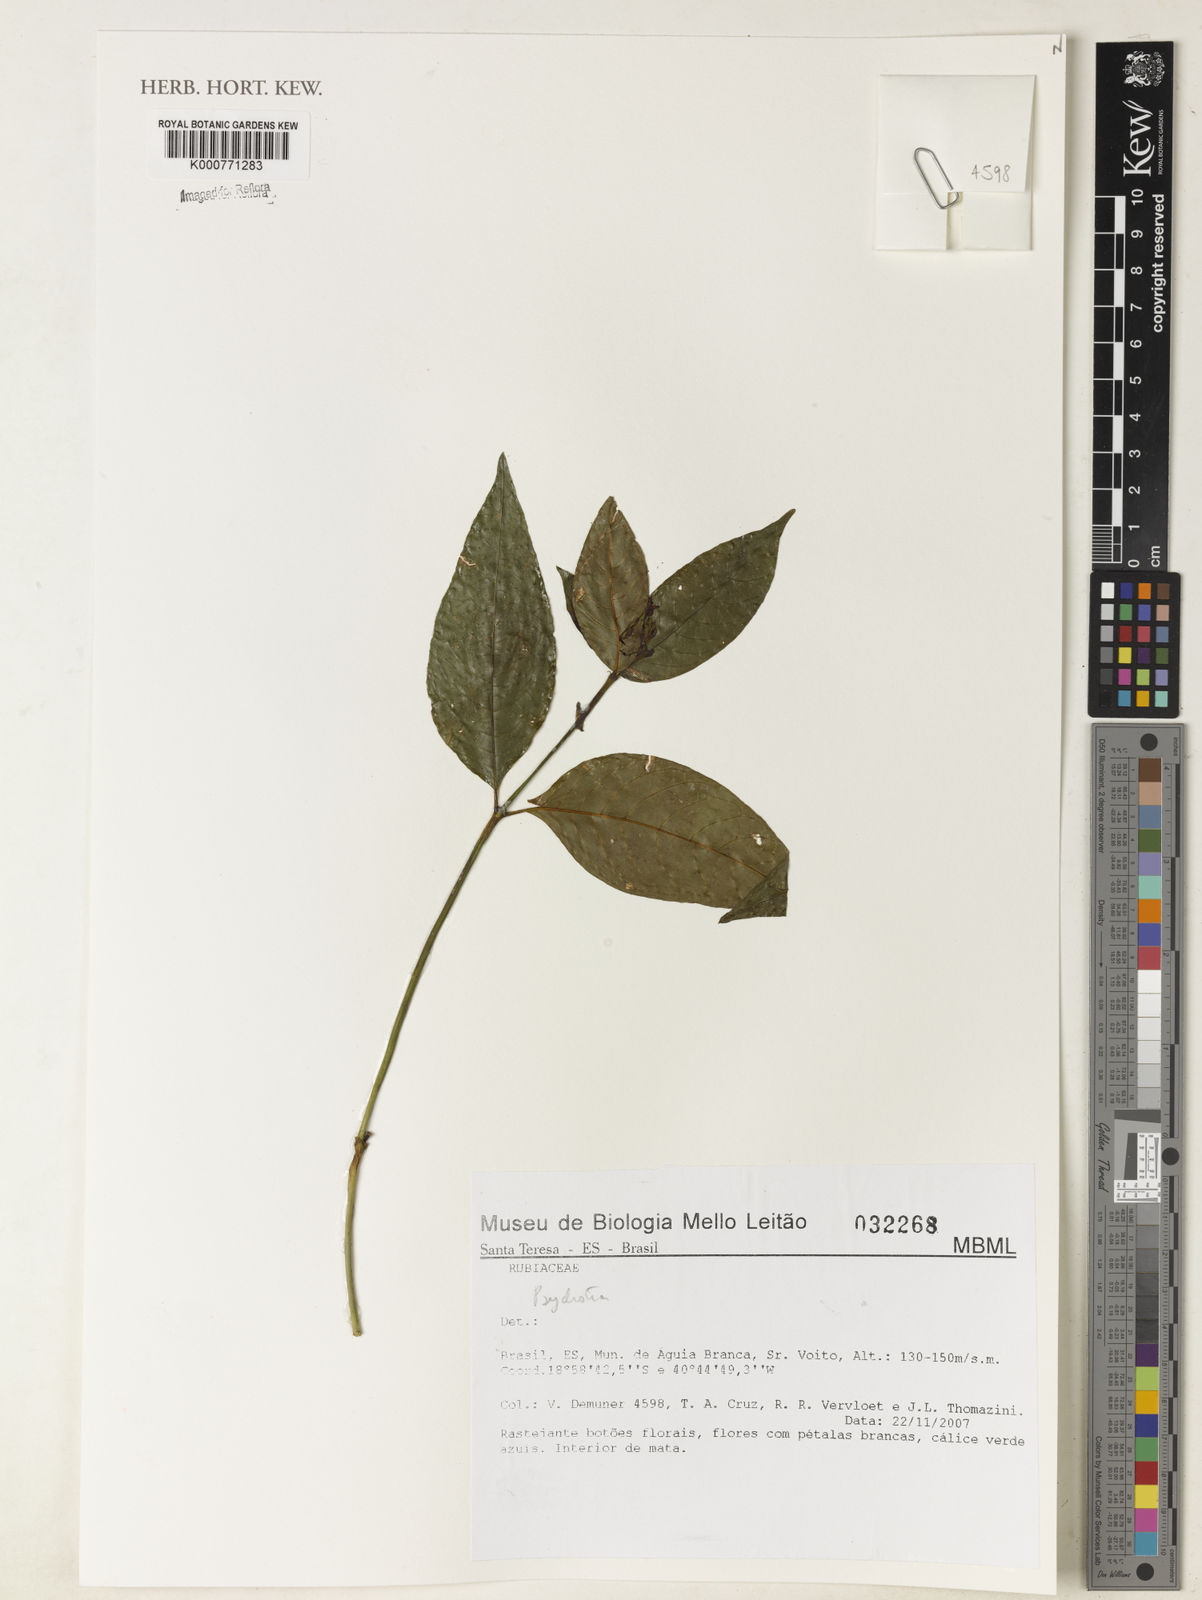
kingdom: Plantae
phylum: Tracheophyta
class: Magnoliopsida
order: Gentianales
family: Rubiaceae
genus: Psychotria
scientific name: Psychotria
